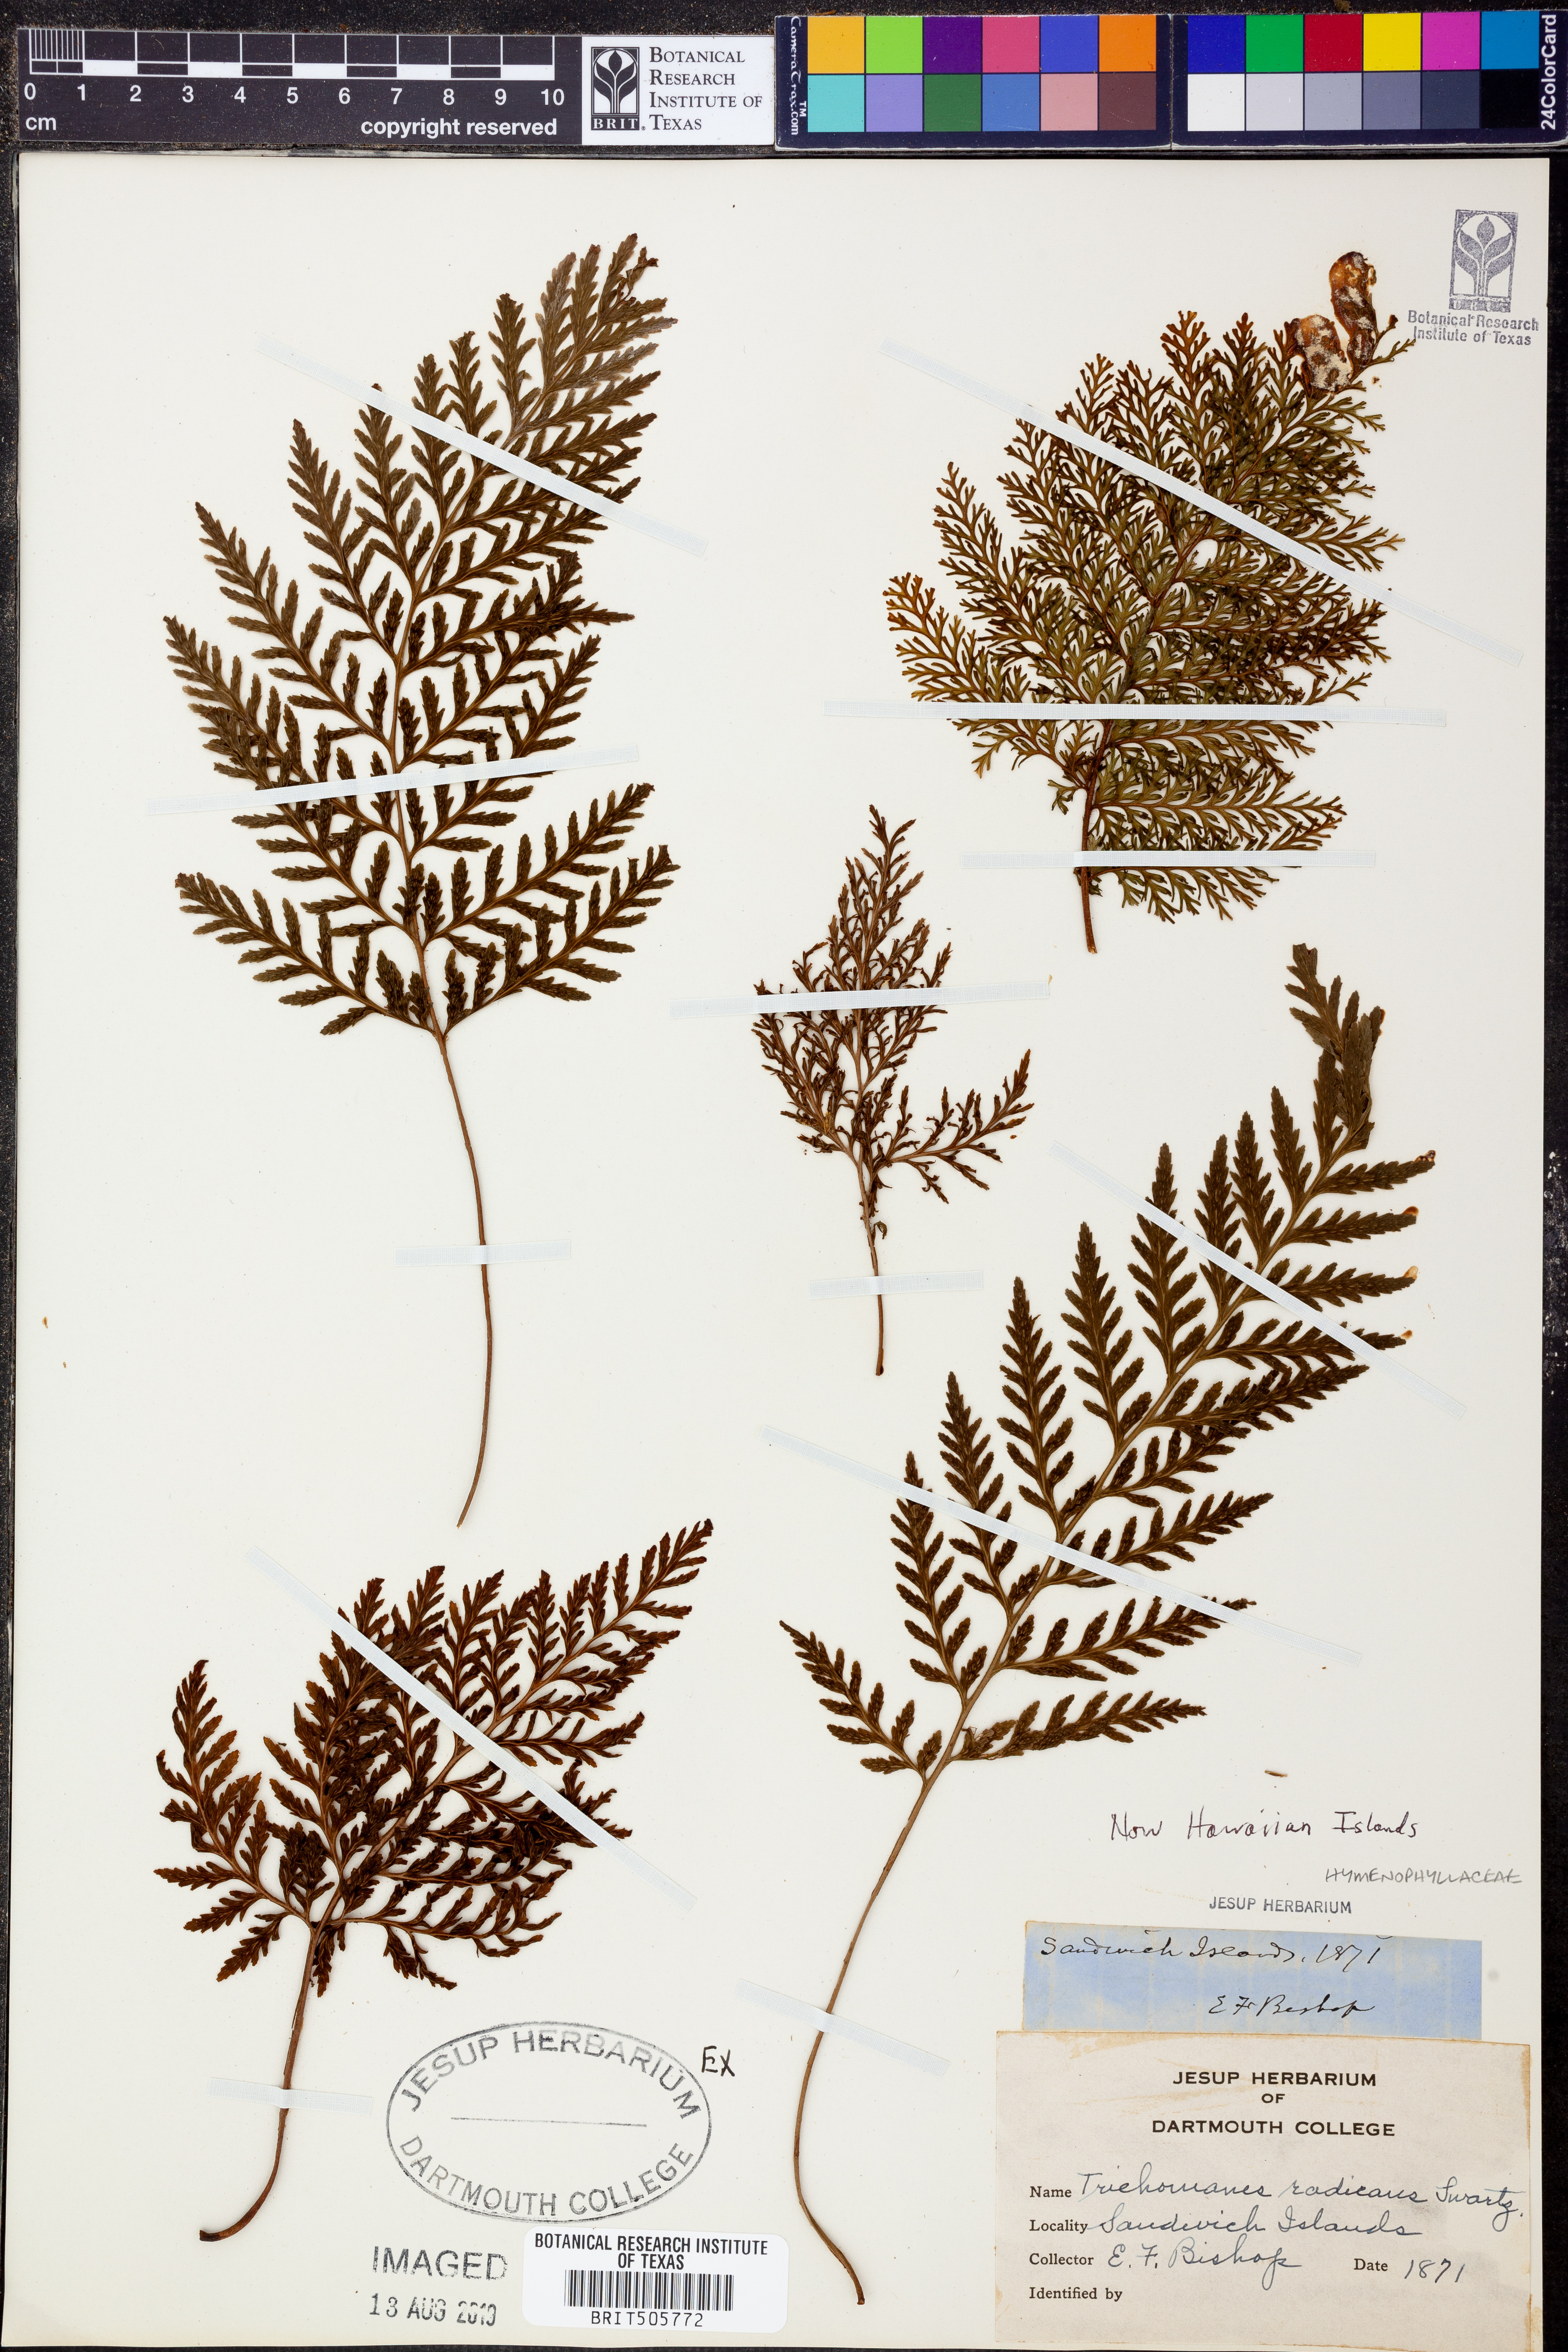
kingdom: Plantae
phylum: Tracheophyta
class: Polypodiopsida
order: Hymenophyllales
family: Hymenophyllaceae
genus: Vandenboschia
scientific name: Vandenboschia radicans
